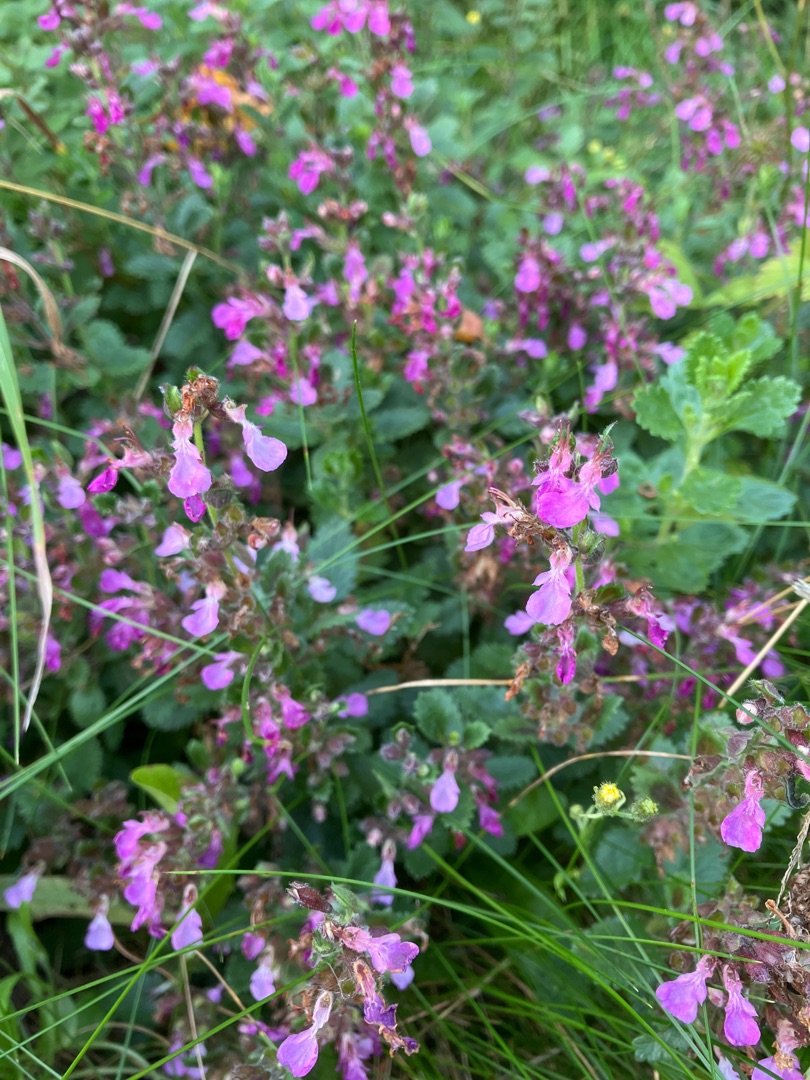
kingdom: Plantae
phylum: Tracheophyta
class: Magnoliopsida
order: Lamiales
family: Lamiaceae
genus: Teucrium
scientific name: Teucrium chamaedrys
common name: Ædel kortlæbe
